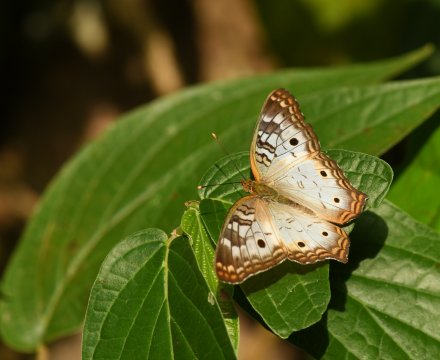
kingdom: Animalia
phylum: Arthropoda
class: Insecta
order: Lepidoptera
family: Nymphalidae
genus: Anartia
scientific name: Anartia jatrophae
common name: White Peacock
